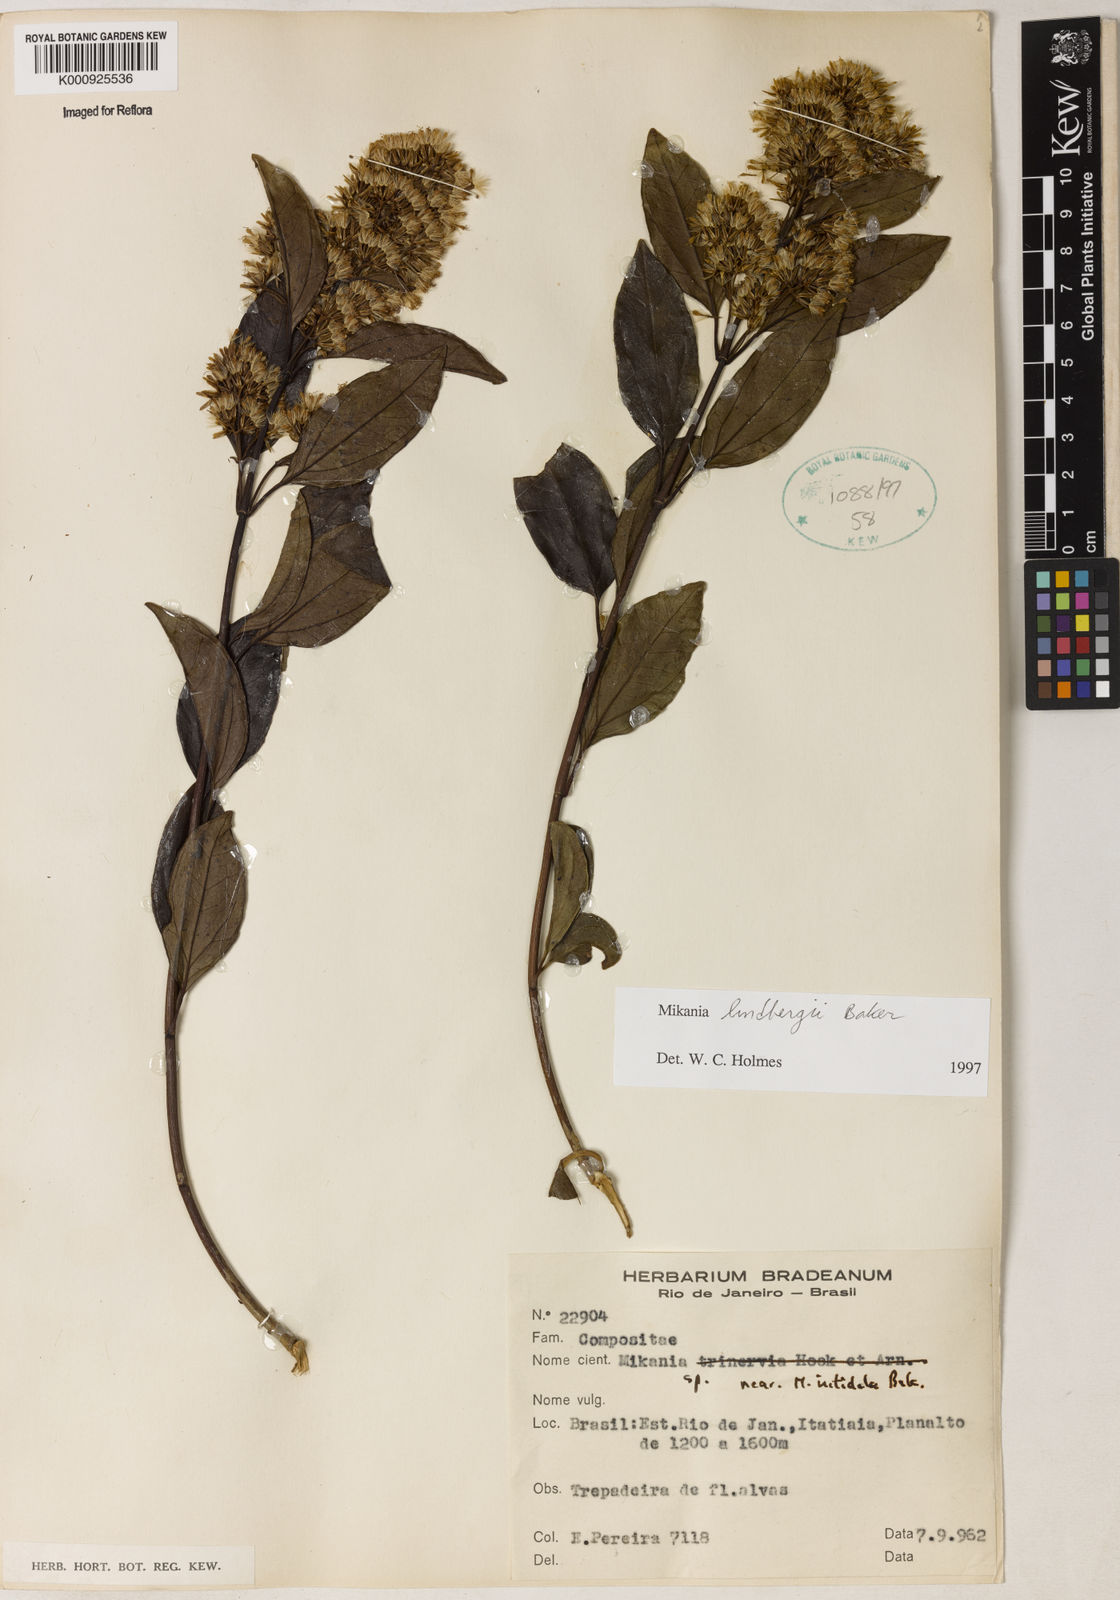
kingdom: Plantae
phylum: Tracheophyta
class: Magnoliopsida
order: Asterales
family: Asteraceae
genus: Mikania
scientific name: Mikania lindbergii
